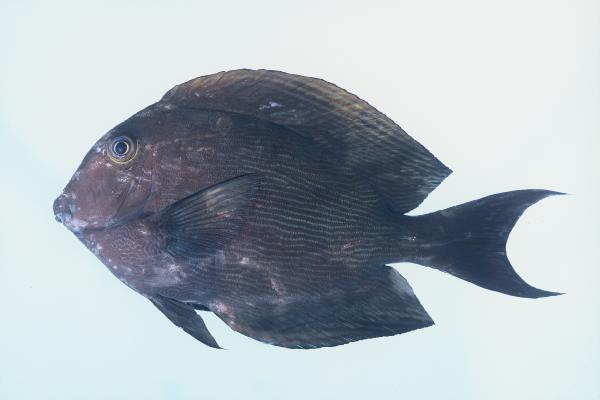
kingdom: Animalia
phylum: Chordata
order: Perciformes
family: Acanthuridae
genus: Ctenochaetus
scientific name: Ctenochaetus striatus
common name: Bristle-toothed surgeonfish
